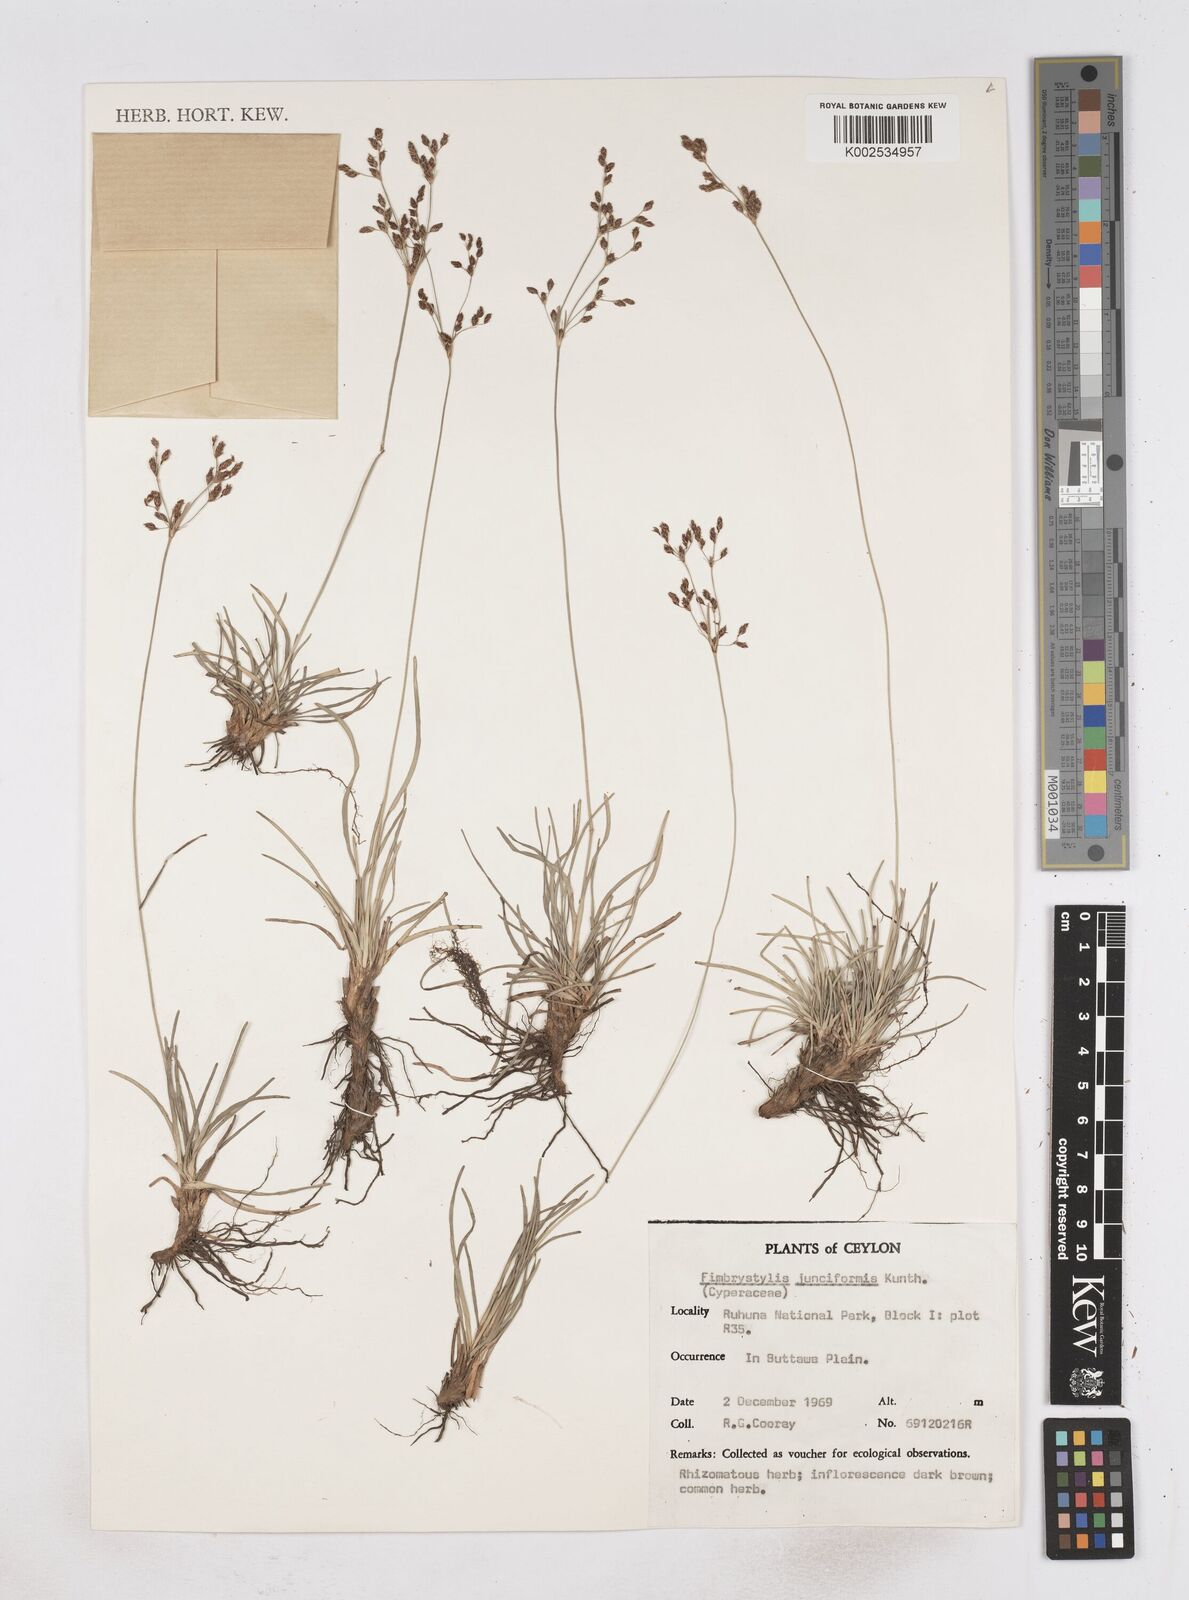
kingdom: Plantae
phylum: Tracheophyta
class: Liliopsida
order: Poales
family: Cyperaceae
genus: Fimbristylis
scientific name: Fimbristylis falcata
